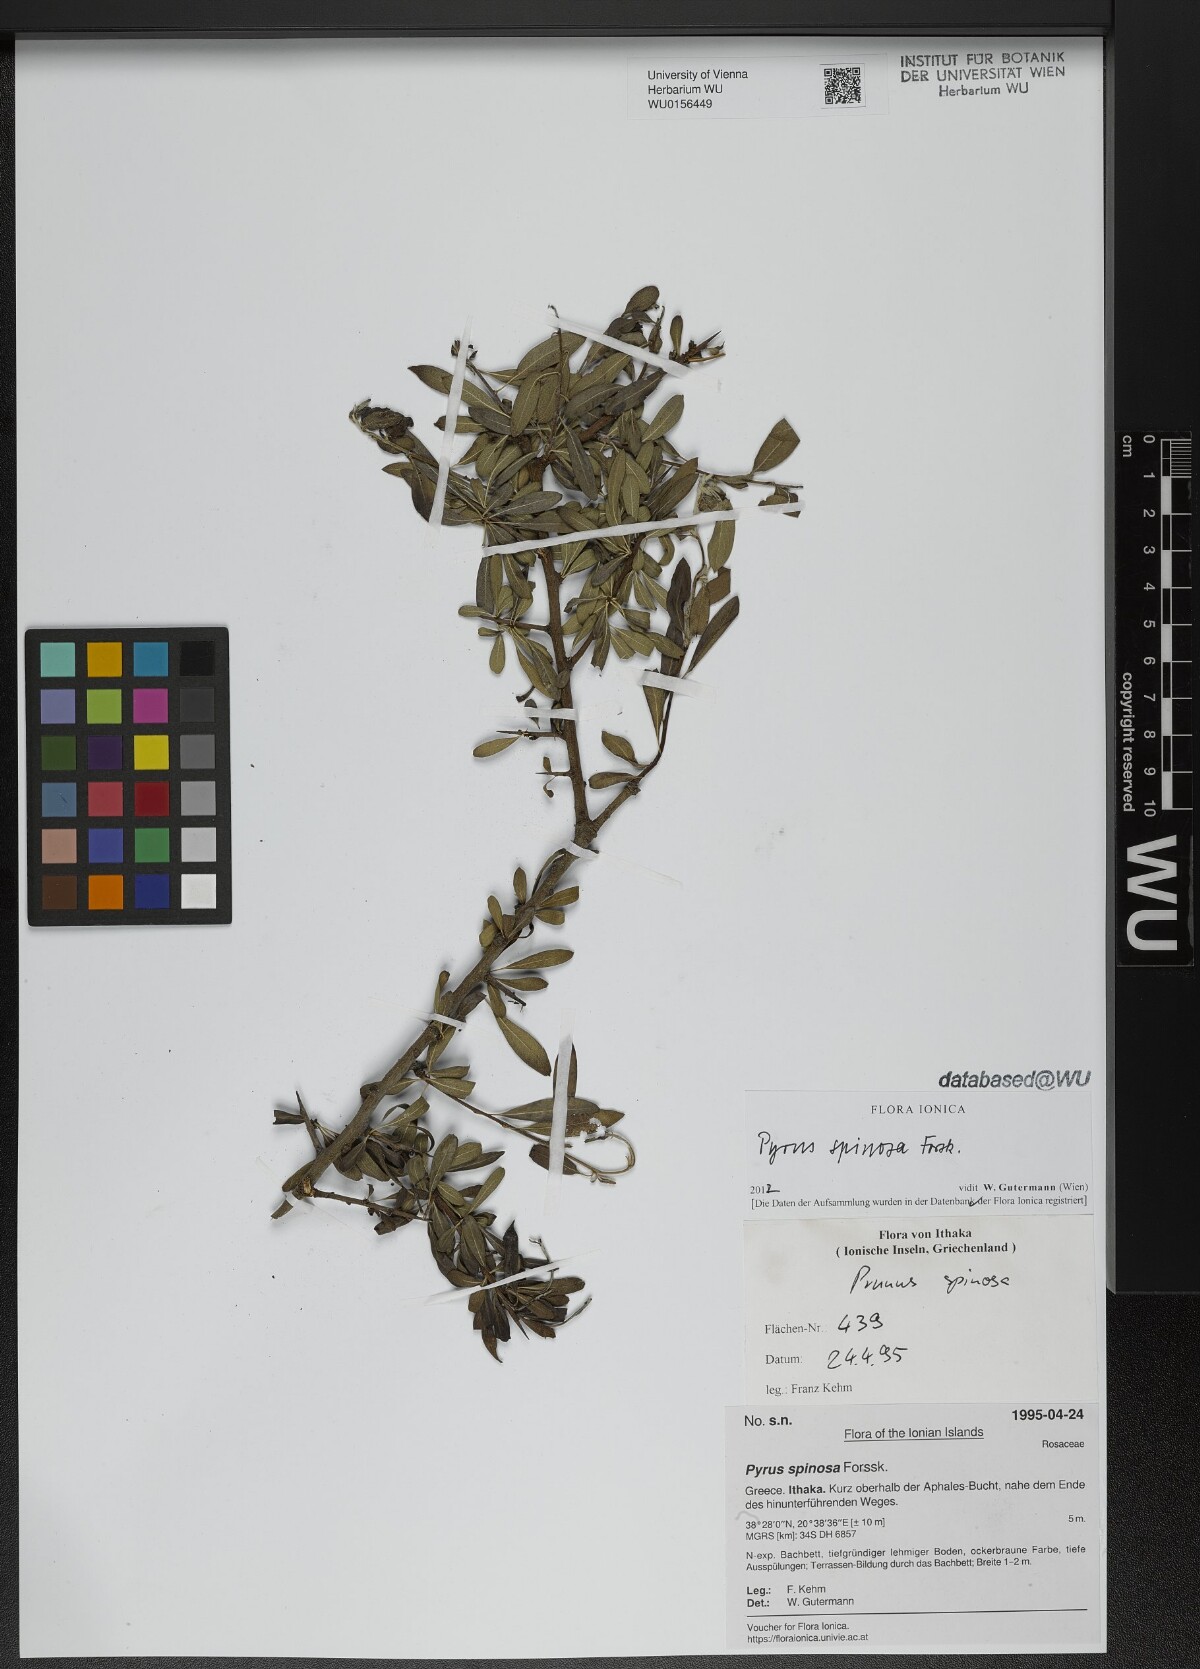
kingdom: Plantae
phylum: Tracheophyta
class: Magnoliopsida
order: Rosales
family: Rosaceae
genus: Pyrus
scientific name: Pyrus spinosa
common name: Almond-leaf pear
